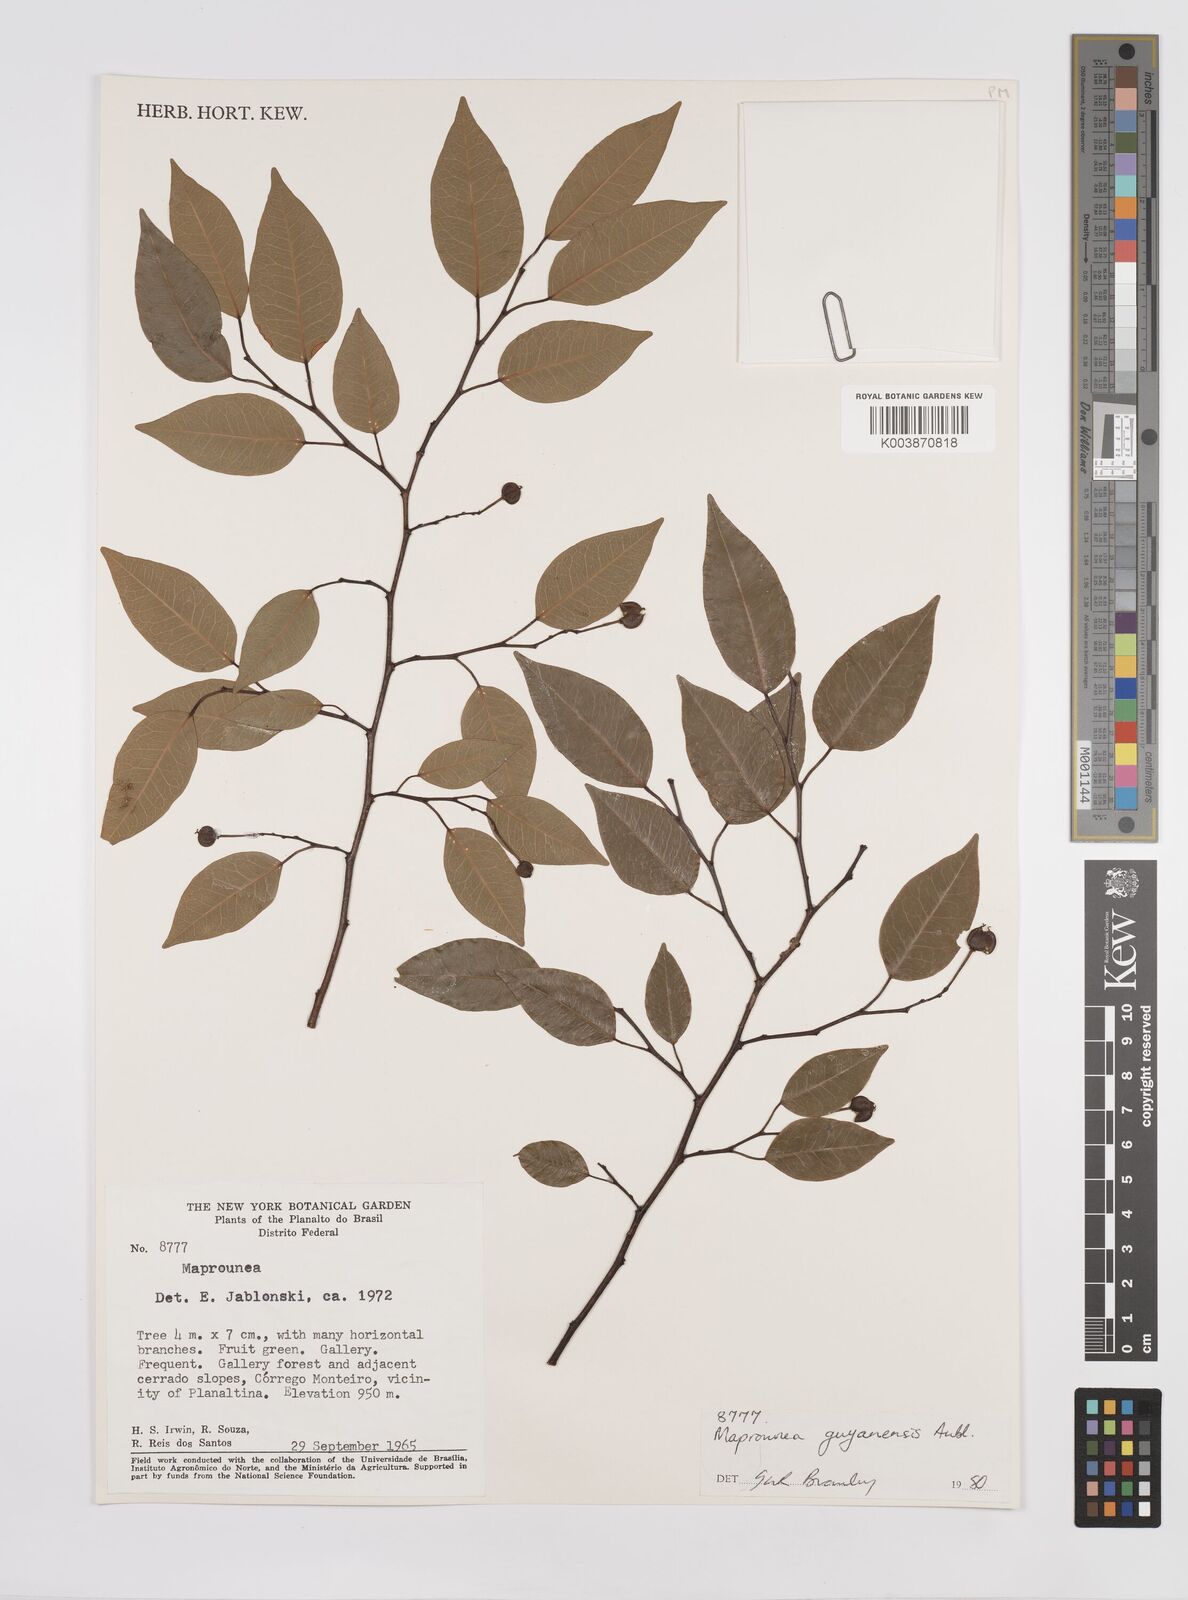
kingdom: Plantae
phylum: Tracheophyta
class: Magnoliopsida
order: Malpighiales
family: Euphorbiaceae
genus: Maprounea
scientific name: Maprounea guianensis
